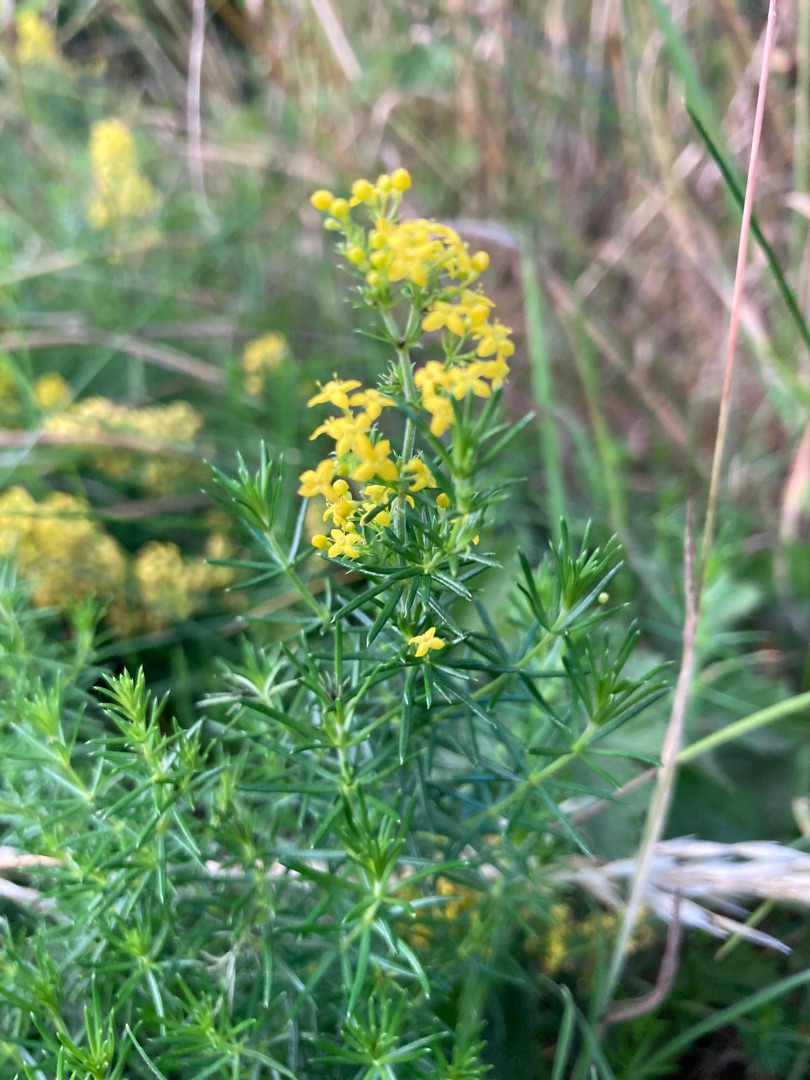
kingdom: Plantae
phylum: Tracheophyta
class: Magnoliopsida
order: Gentianales
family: Rubiaceae
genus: Galium
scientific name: Galium verum
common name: Gul snerre
